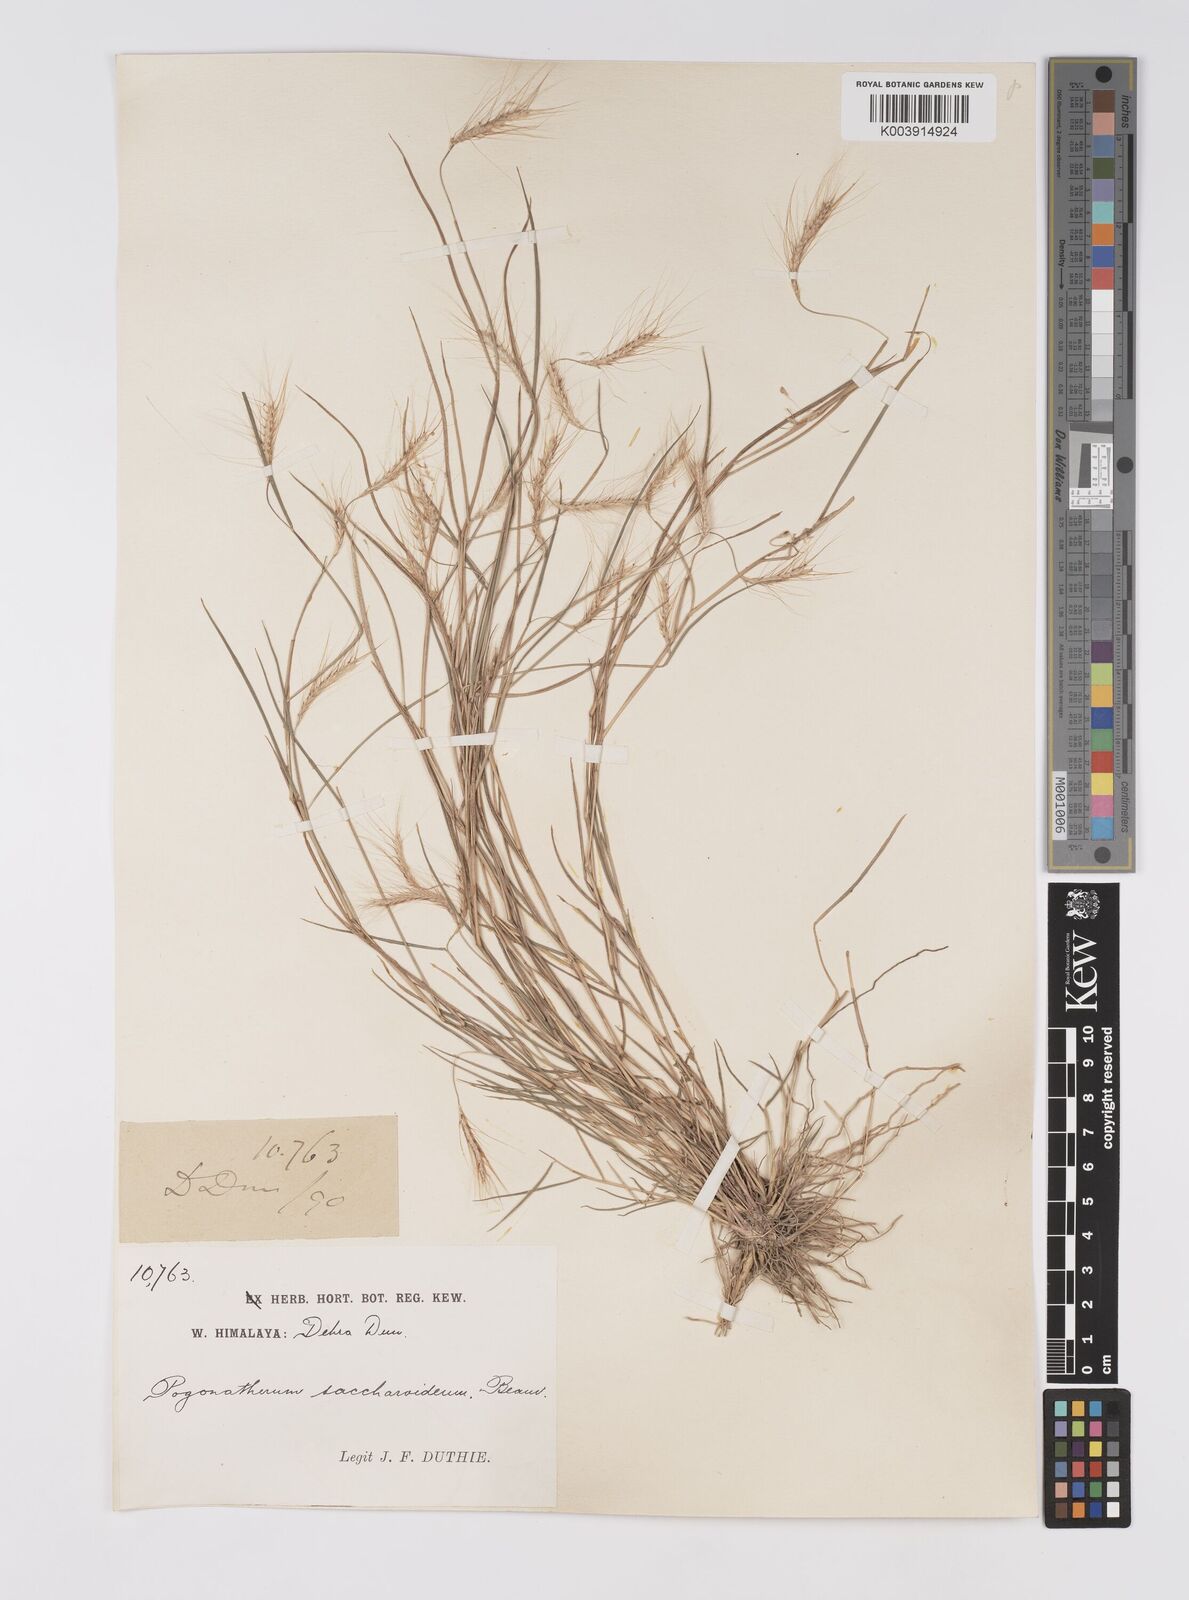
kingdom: Plantae
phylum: Tracheophyta
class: Liliopsida
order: Poales
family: Poaceae
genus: Pogonatherum
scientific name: Pogonatherum paniceum
